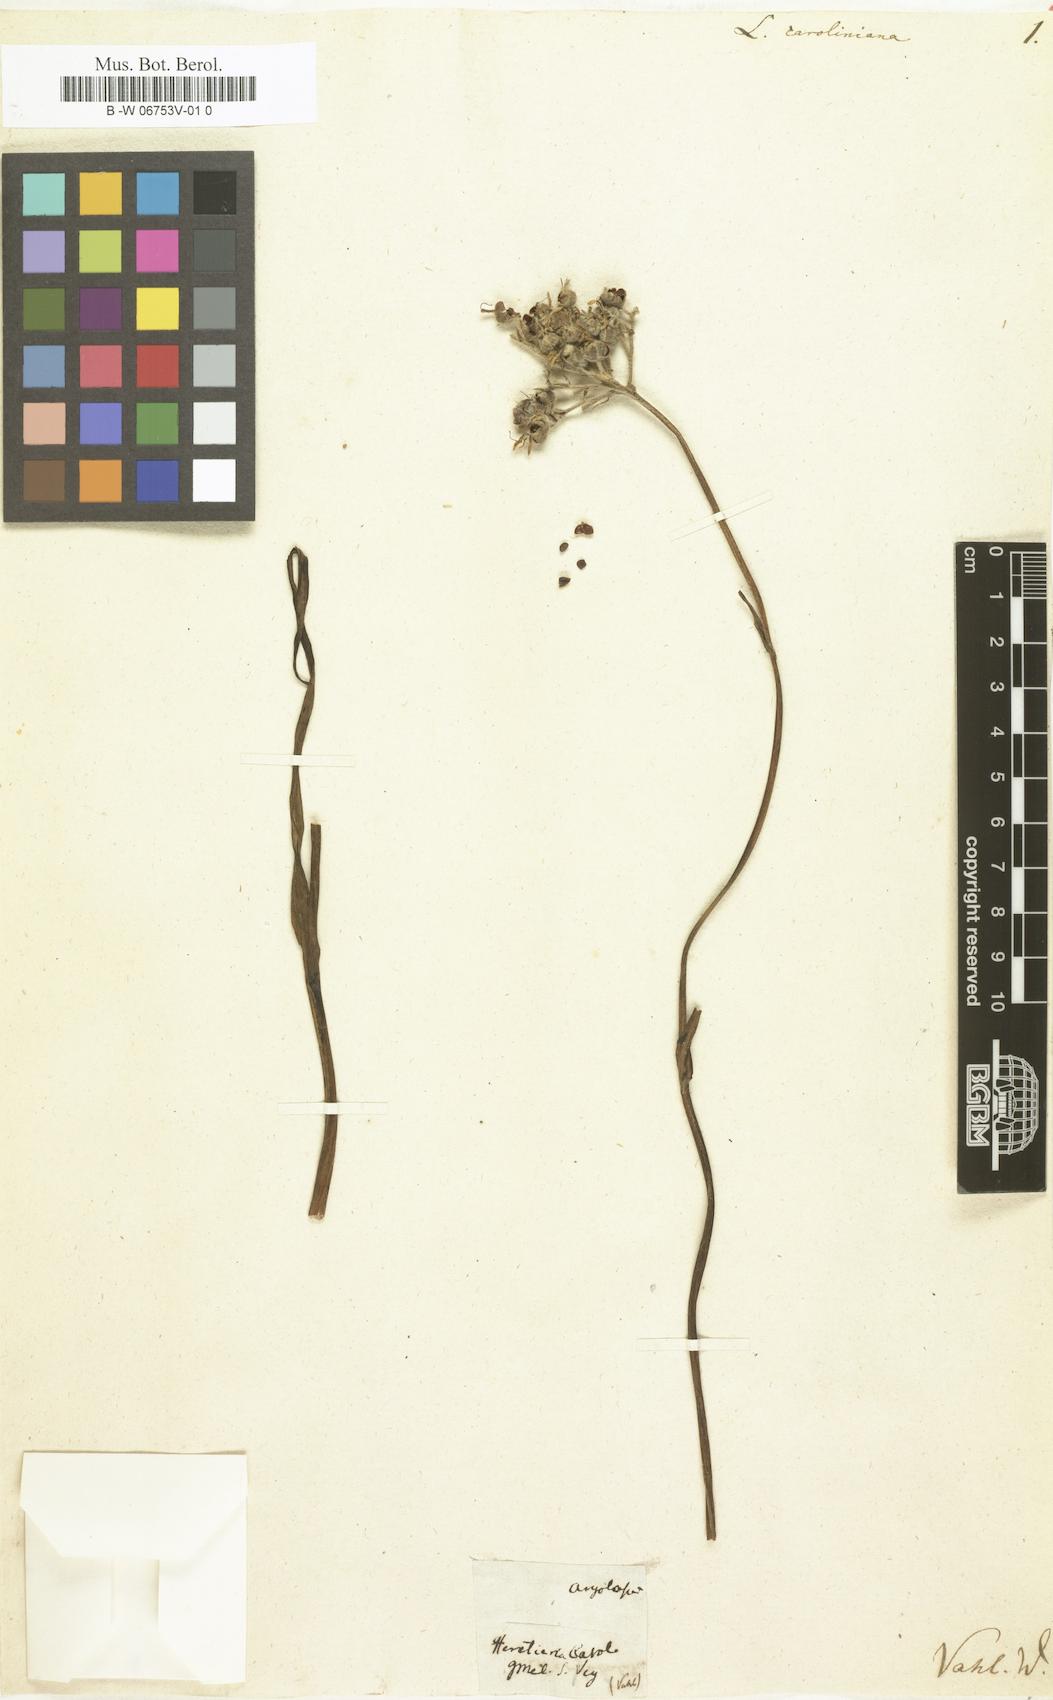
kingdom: Plantae
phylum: Tracheophyta
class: Liliopsida
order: Asparagales
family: Amaryllidaceae
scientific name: Amaryllidaceae
